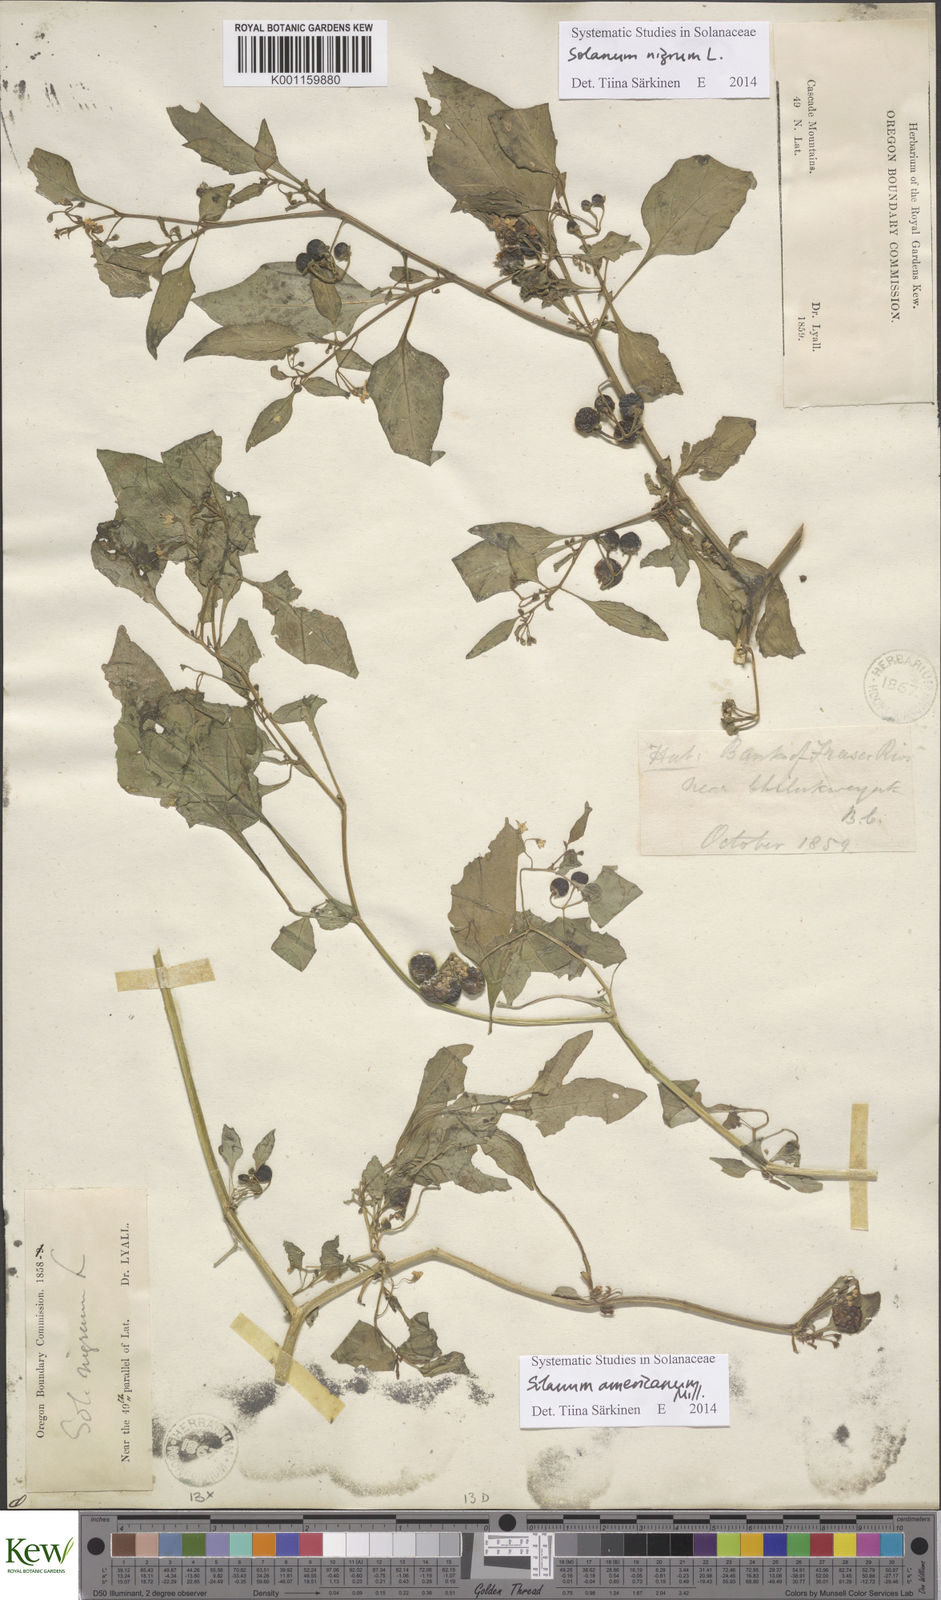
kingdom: Plantae
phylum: Tracheophyta
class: Magnoliopsida
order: Solanales
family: Solanaceae
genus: Solanum
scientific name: Solanum americanum
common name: American black nightshade
